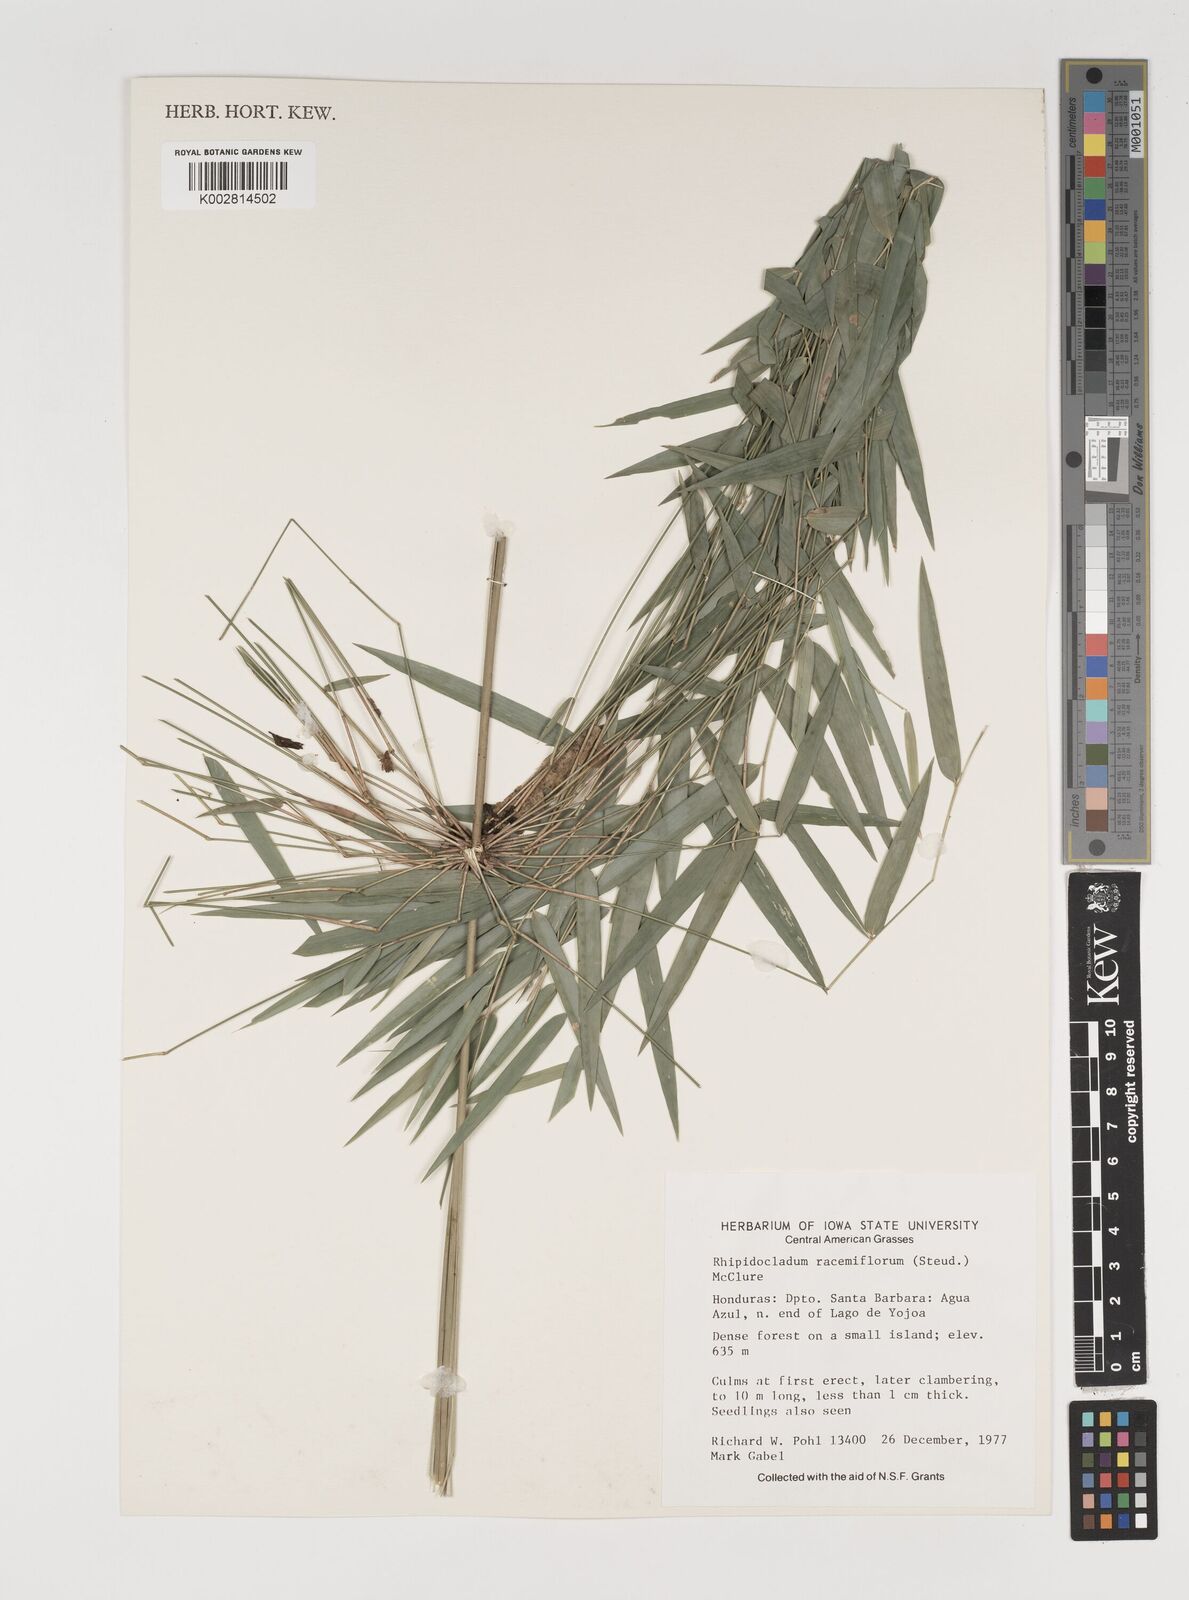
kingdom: Plantae
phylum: Tracheophyta
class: Liliopsida
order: Poales
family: Poaceae
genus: Rhipidocladum
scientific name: Rhipidocladum
